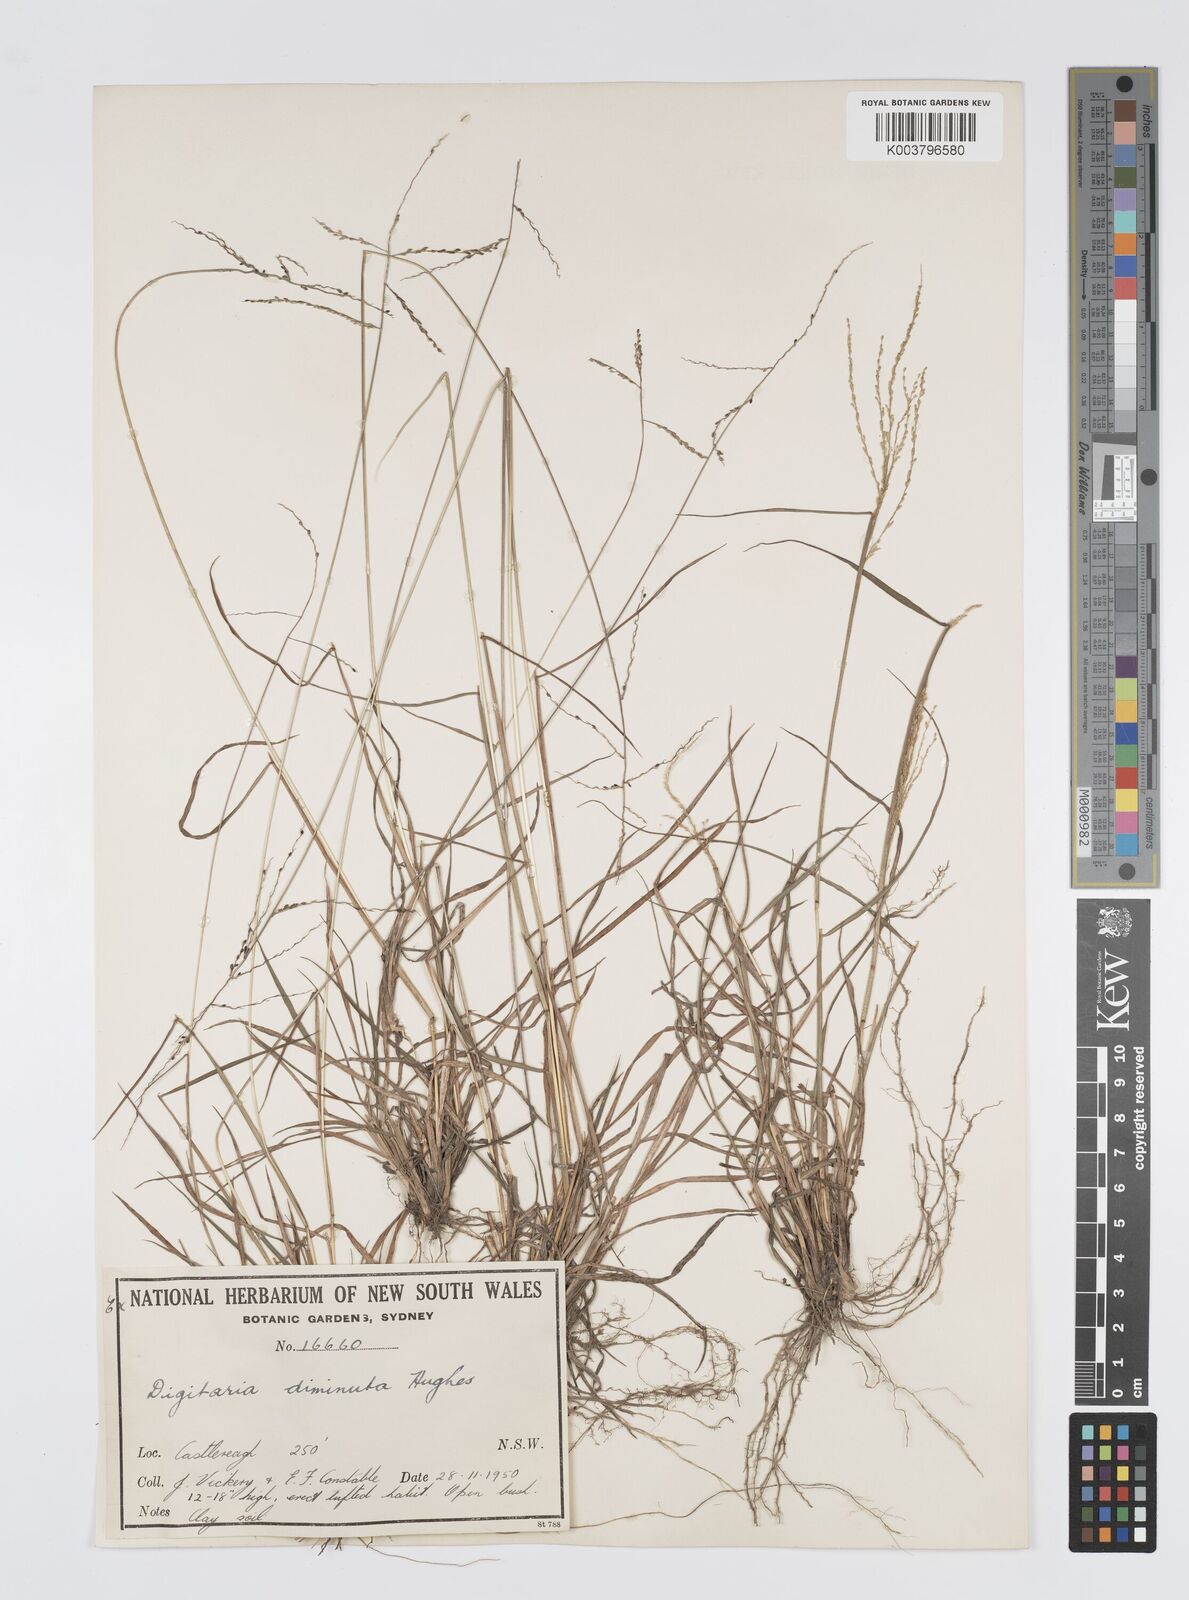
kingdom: Plantae
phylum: Tracheophyta
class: Liliopsida
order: Poales
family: Poaceae
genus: Digitaria
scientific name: Digitaria breviglumis
